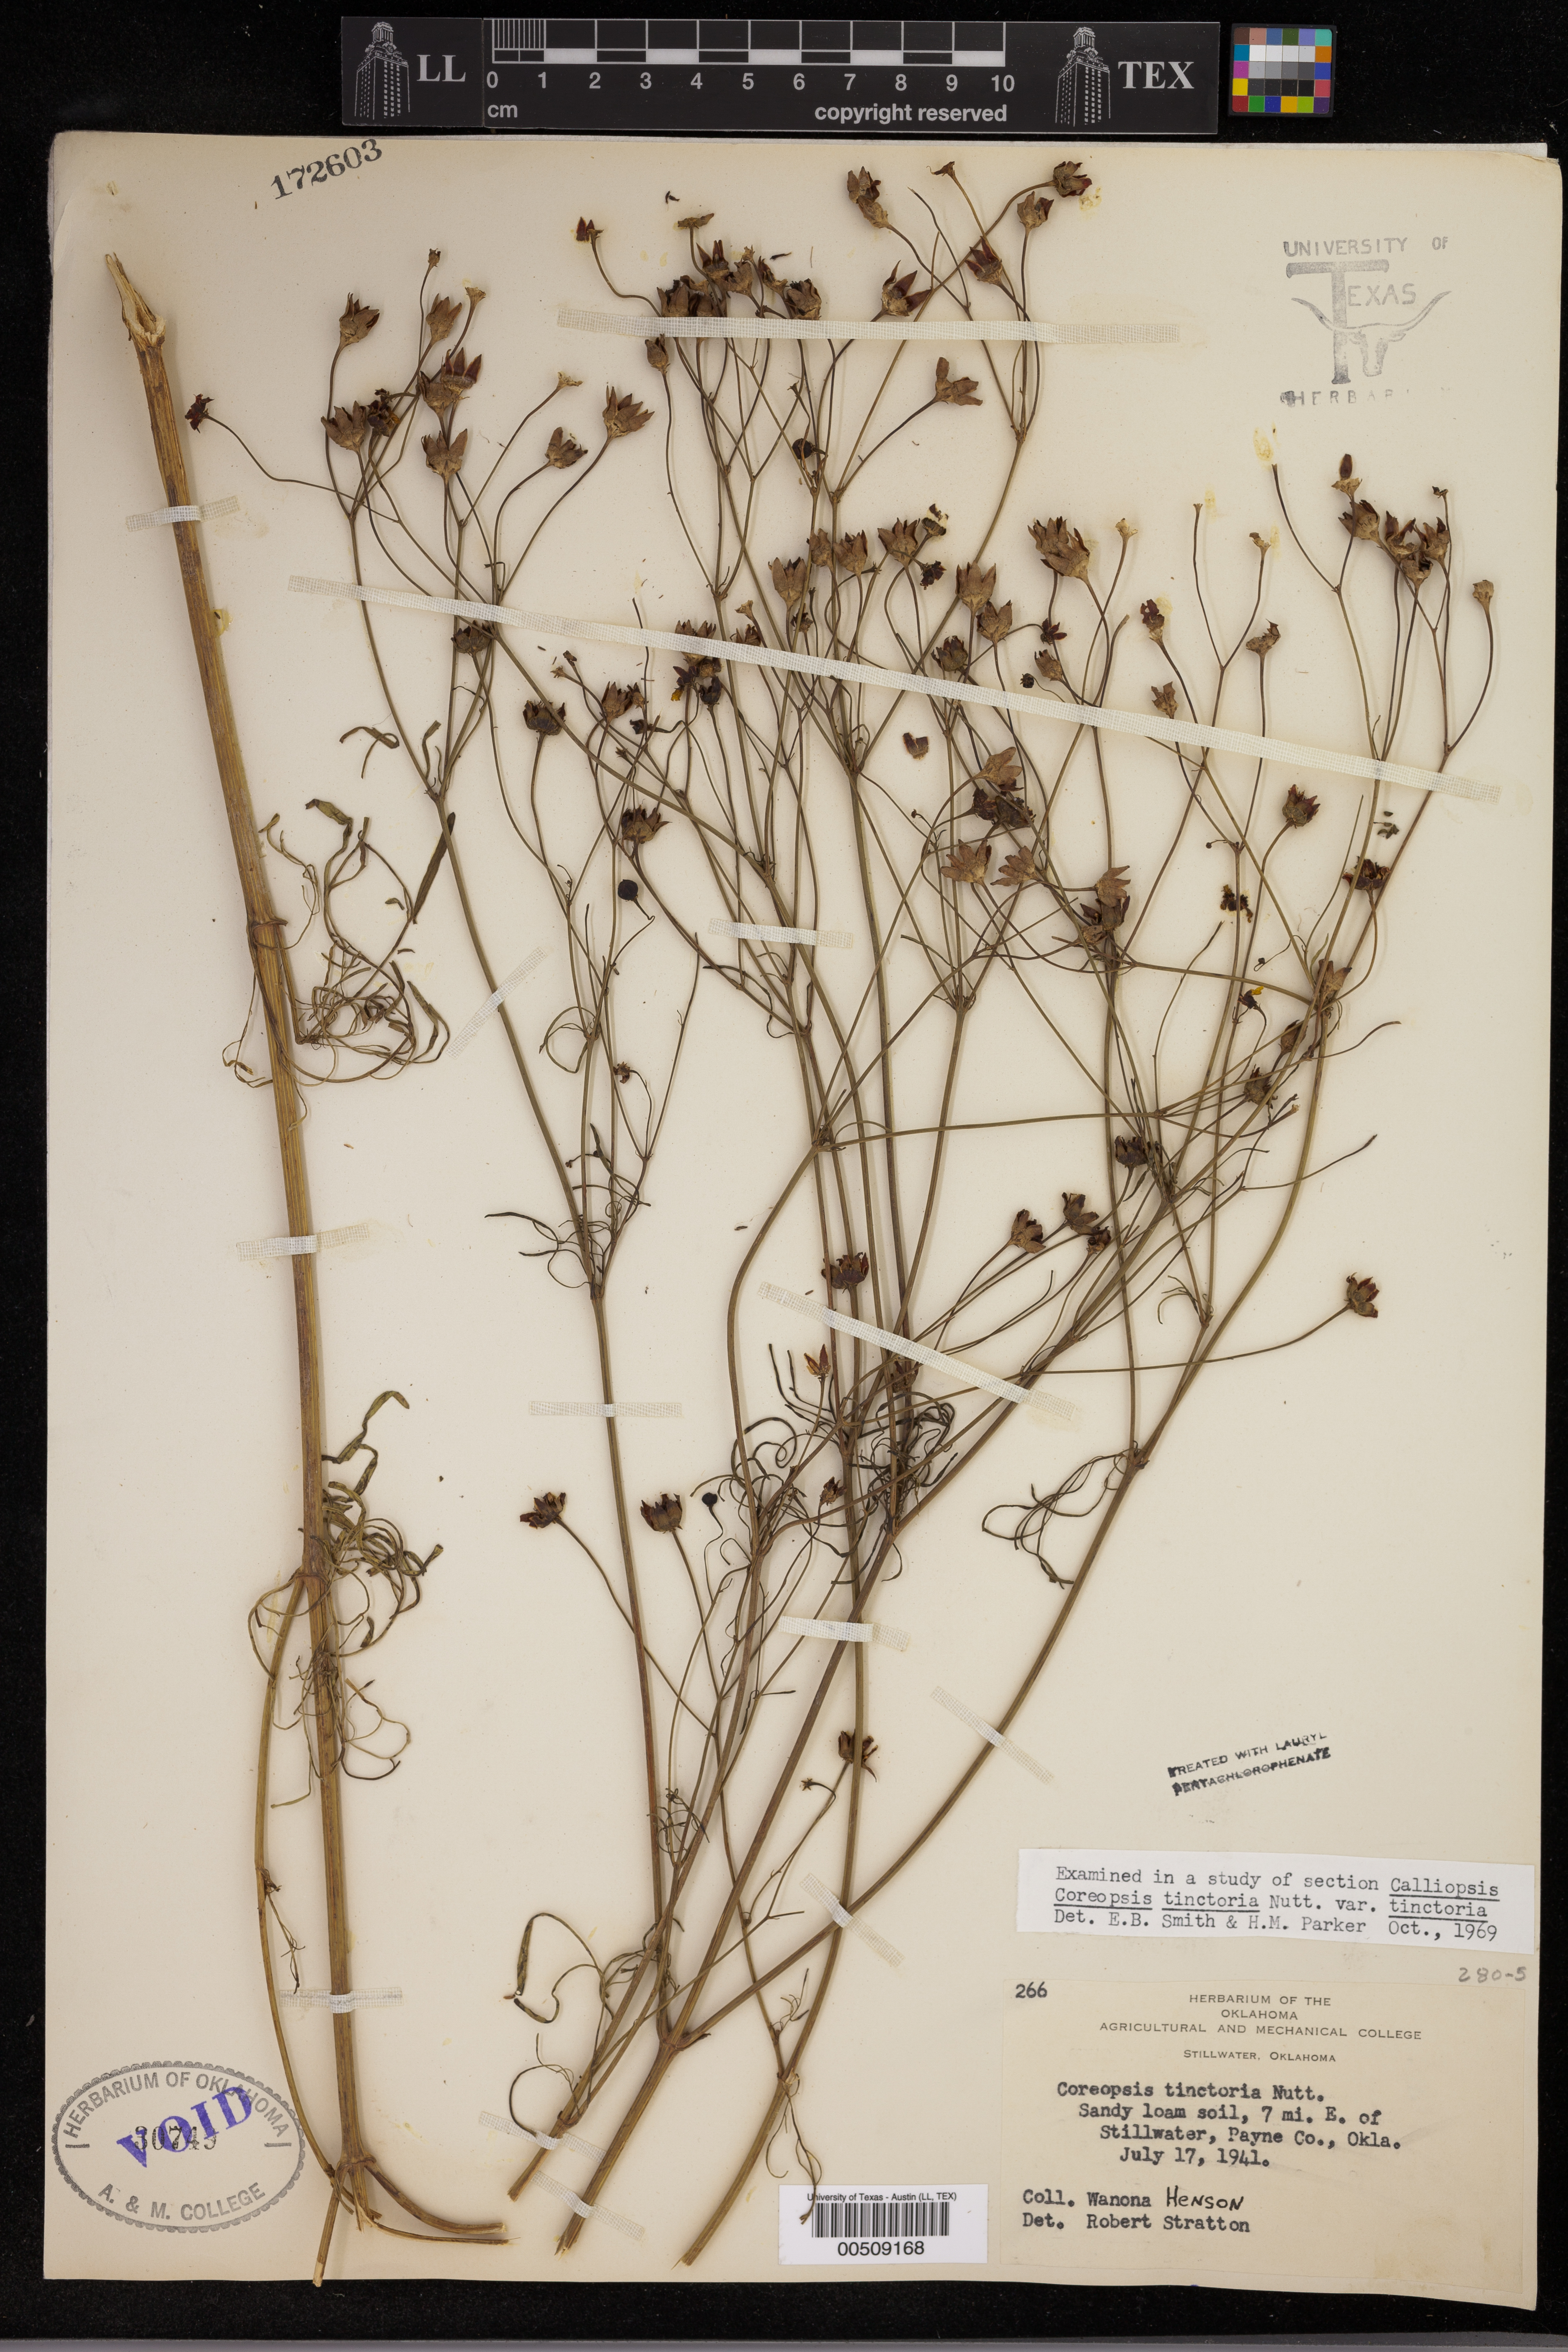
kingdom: Plantae
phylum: Tracheophyta
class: Magnoliopsida
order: Asterales
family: Asteraceae
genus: Coreopsis
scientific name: Coreopsis tinctoria
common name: Garden tickseed
